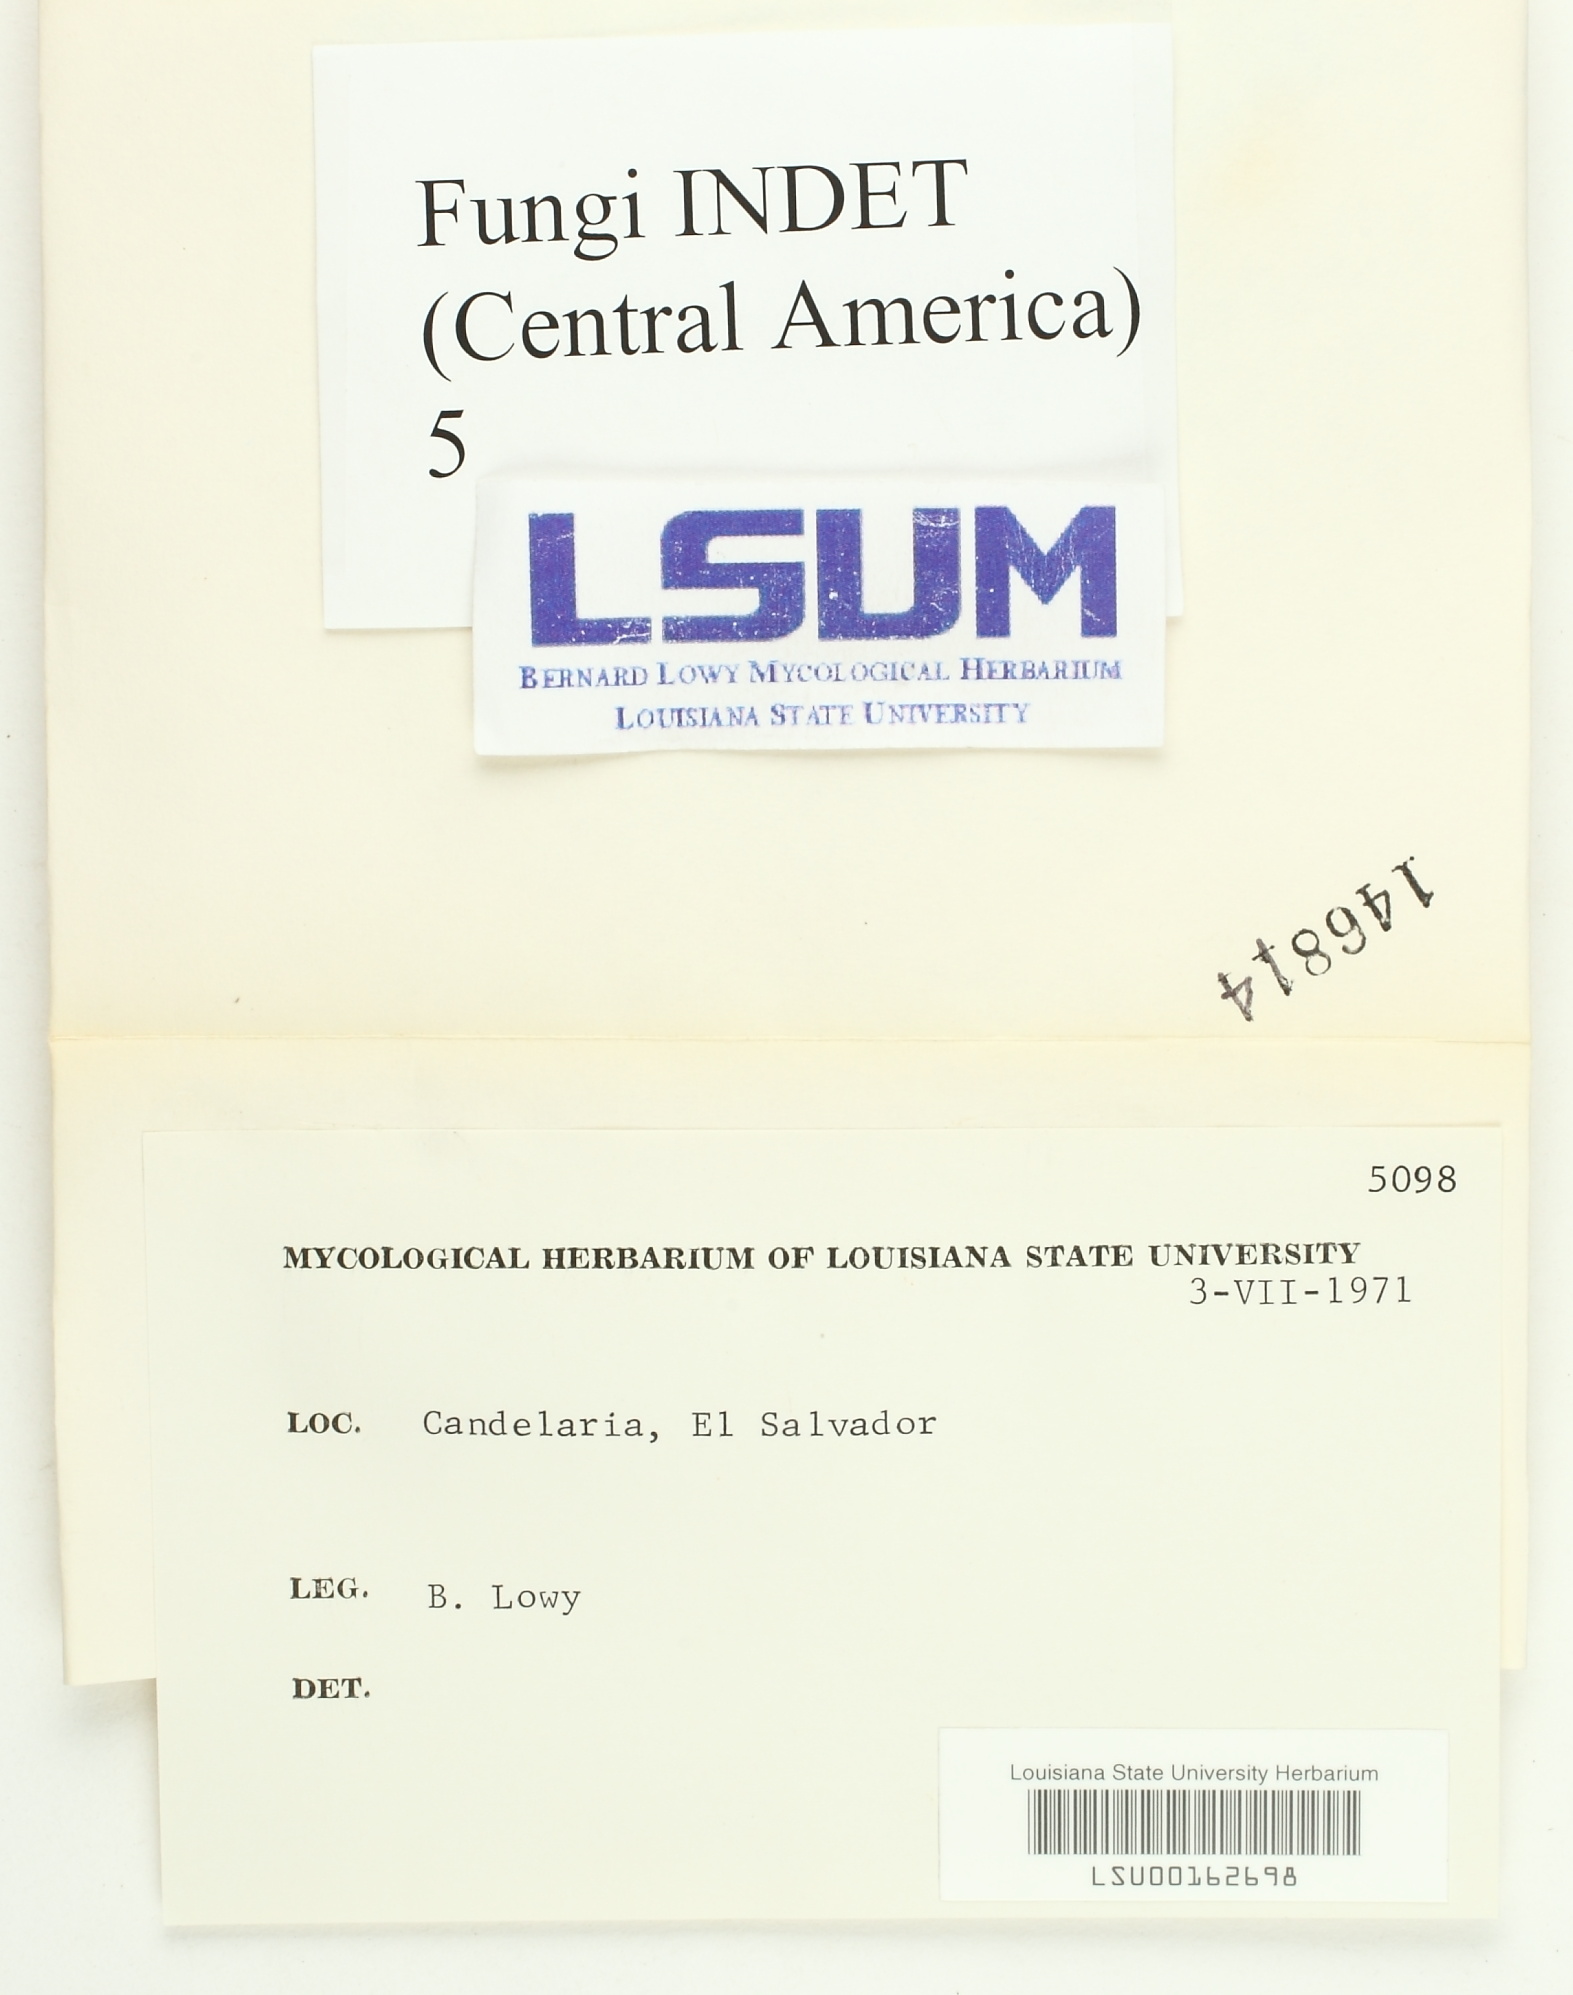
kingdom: Fungi
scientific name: Fungi
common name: Fungi
